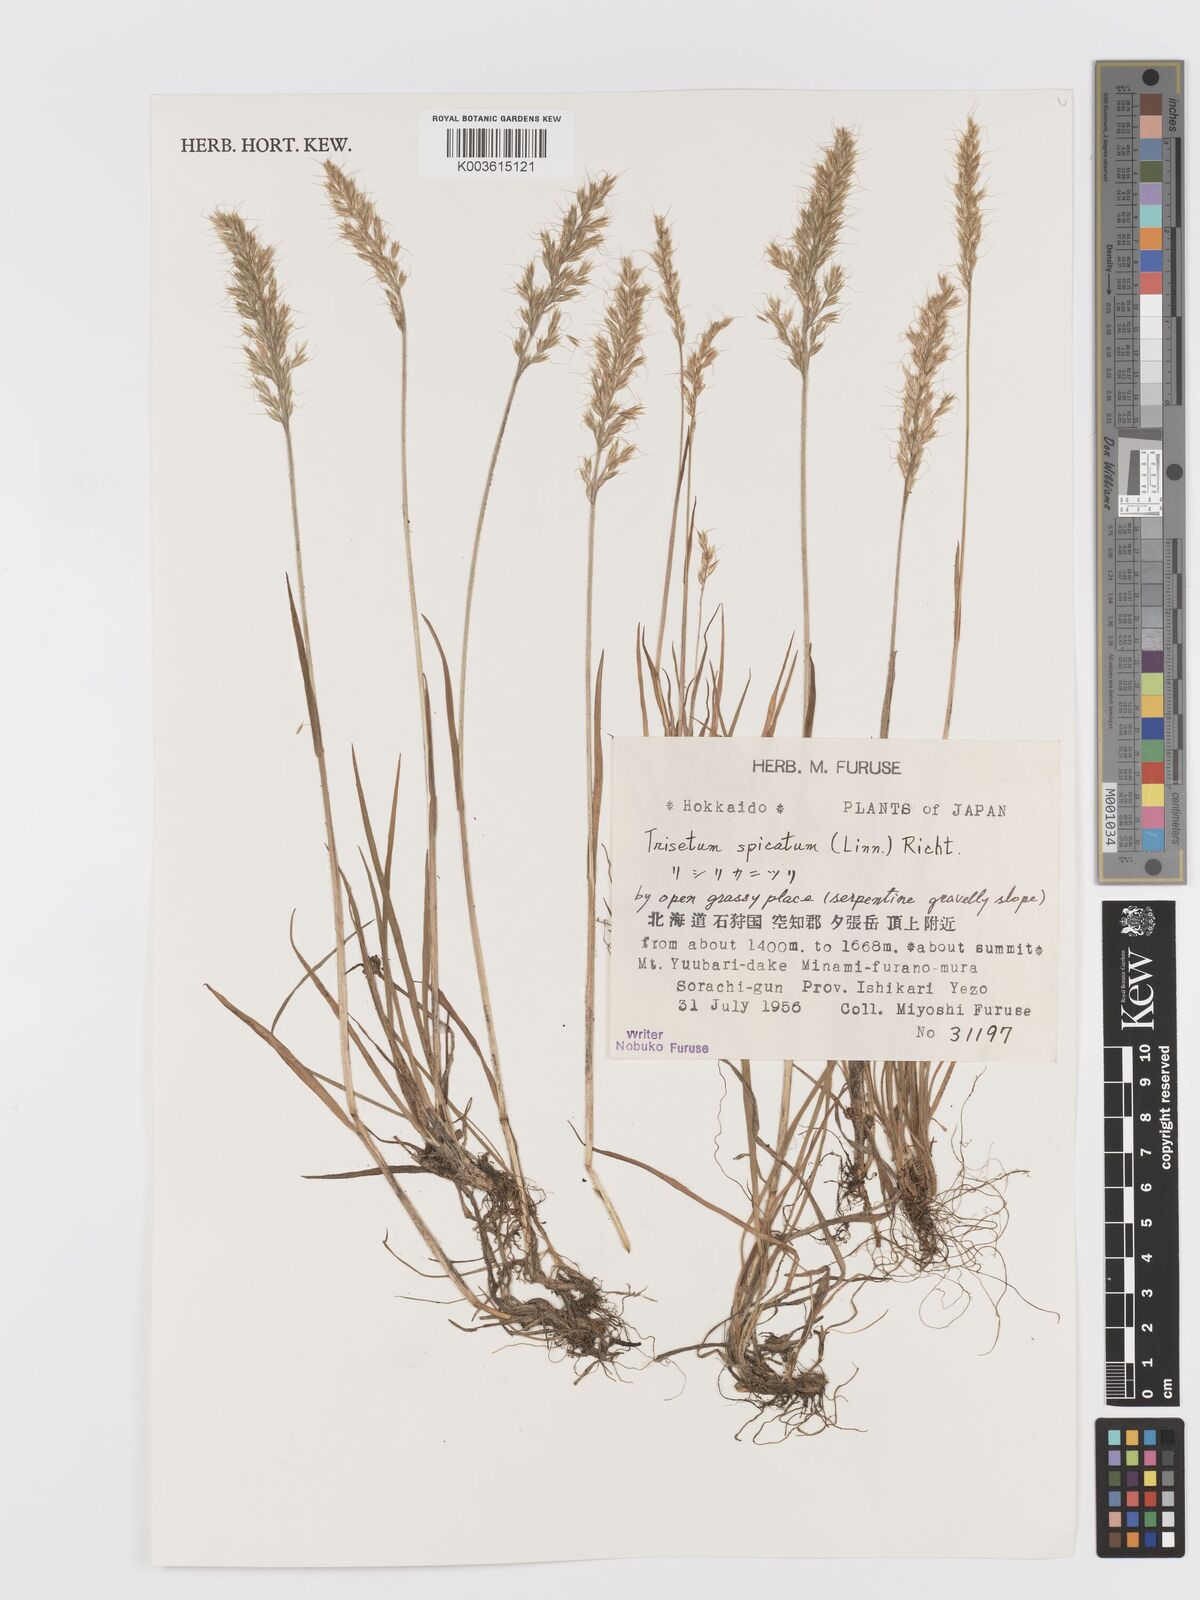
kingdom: Plantae
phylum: Tracheophyta
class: Liliopsida
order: Poales
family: Poaceae
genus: Koeleria
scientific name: Koeleria spicata
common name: Mountain trisetum
